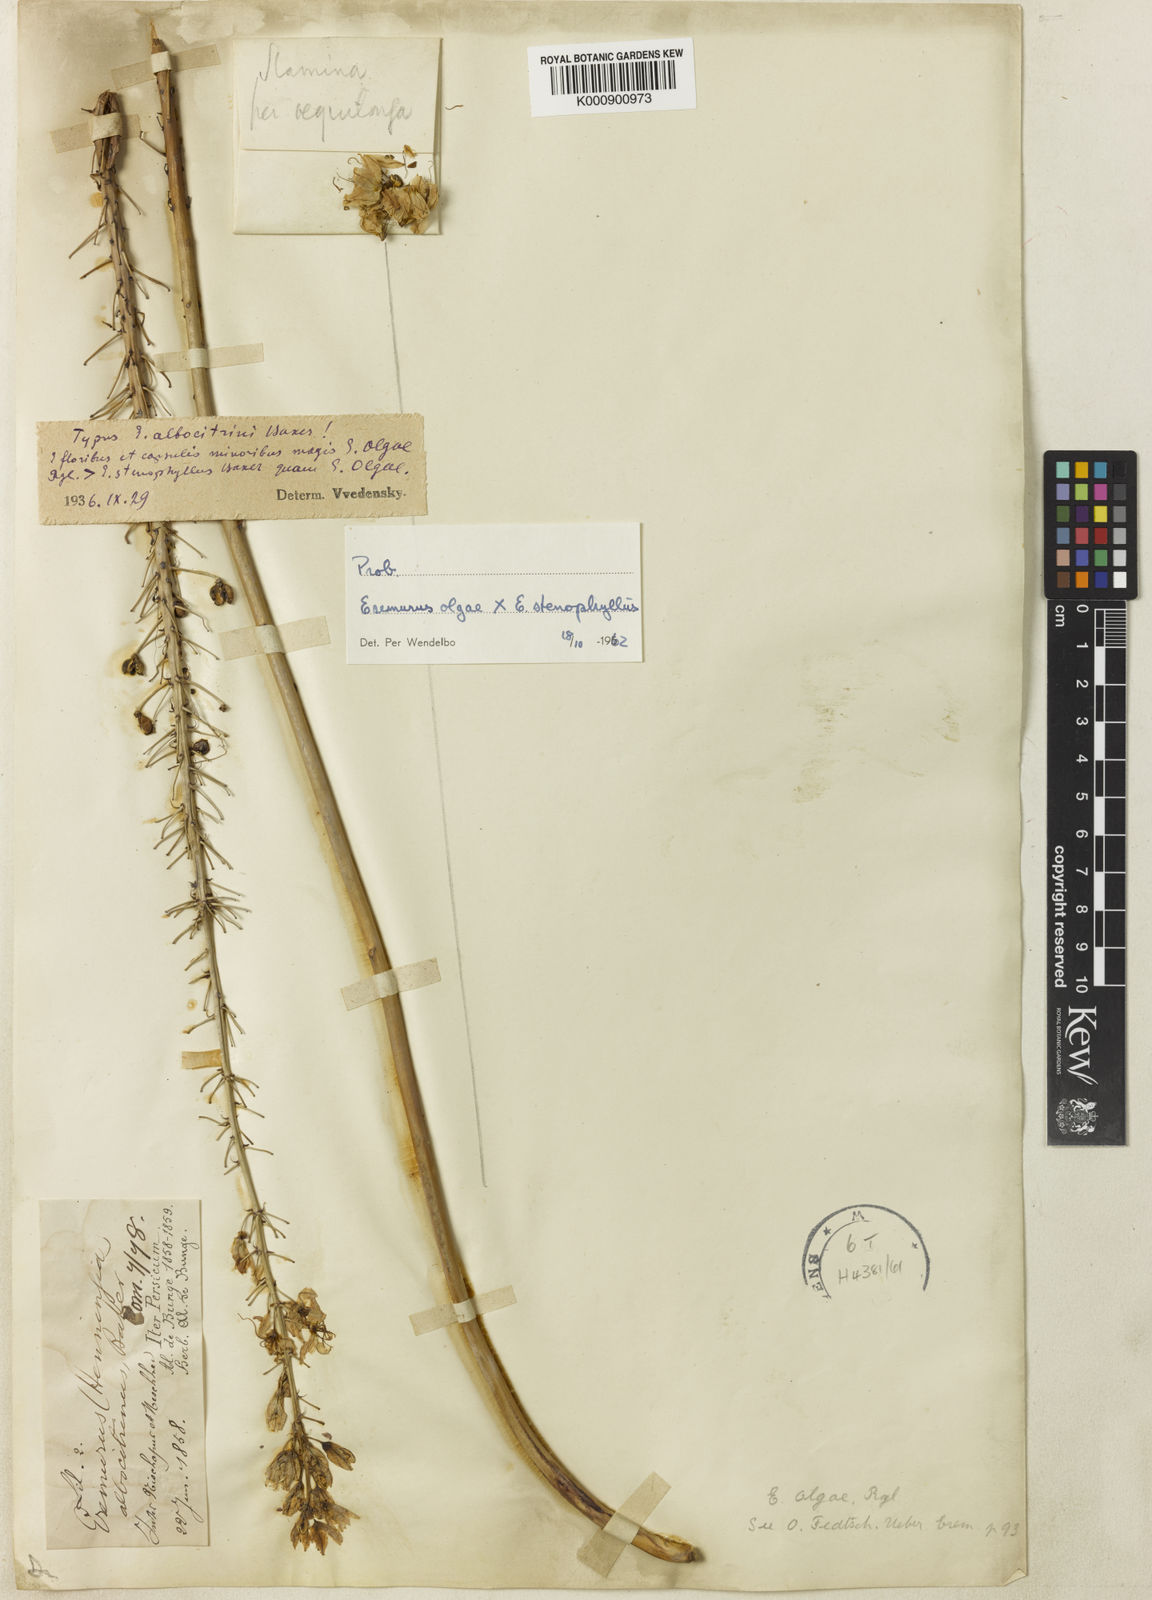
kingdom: Plantae
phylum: Tracheophyta
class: Liliopsida
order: Asparagales
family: Asphodelaceae
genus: Eremurus
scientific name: Eremurus olgae
